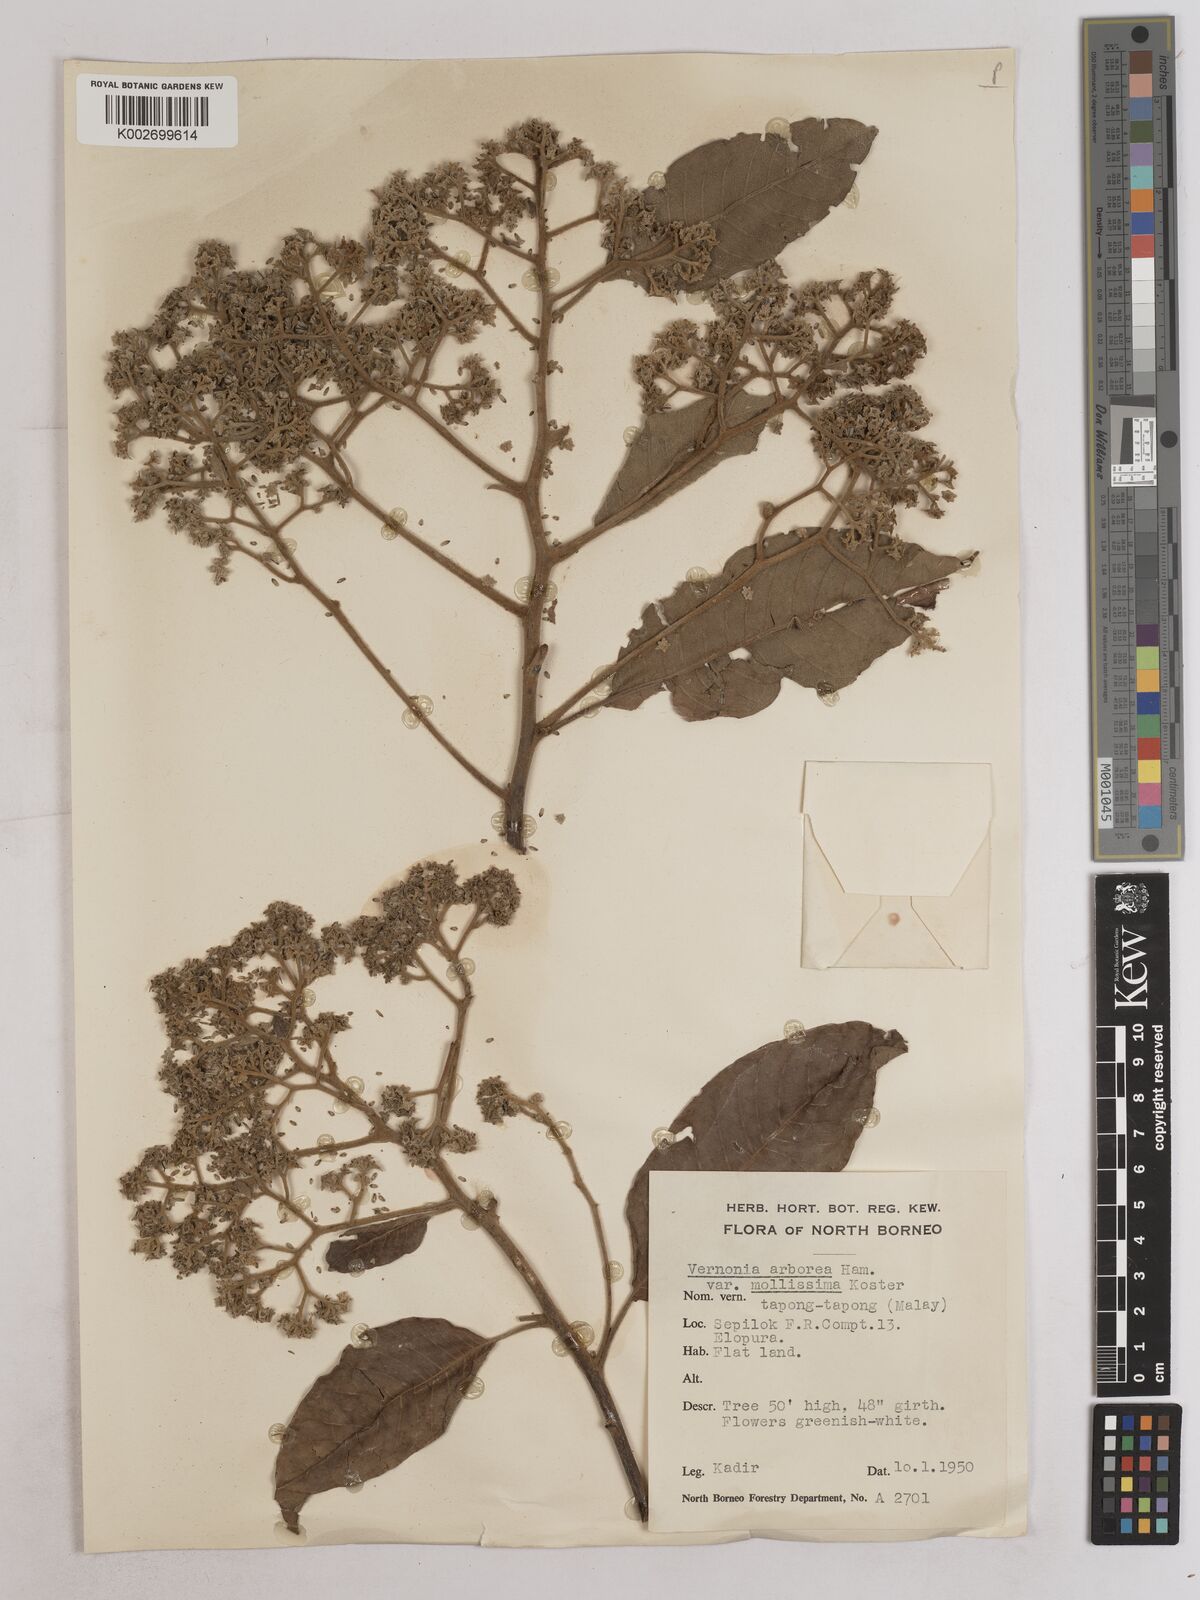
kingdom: Plantae
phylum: Tracheophyta
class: Magnoliopsida
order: Asterales
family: Asteraceae
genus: Strobocalyx
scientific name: Strobocalyx arborea
